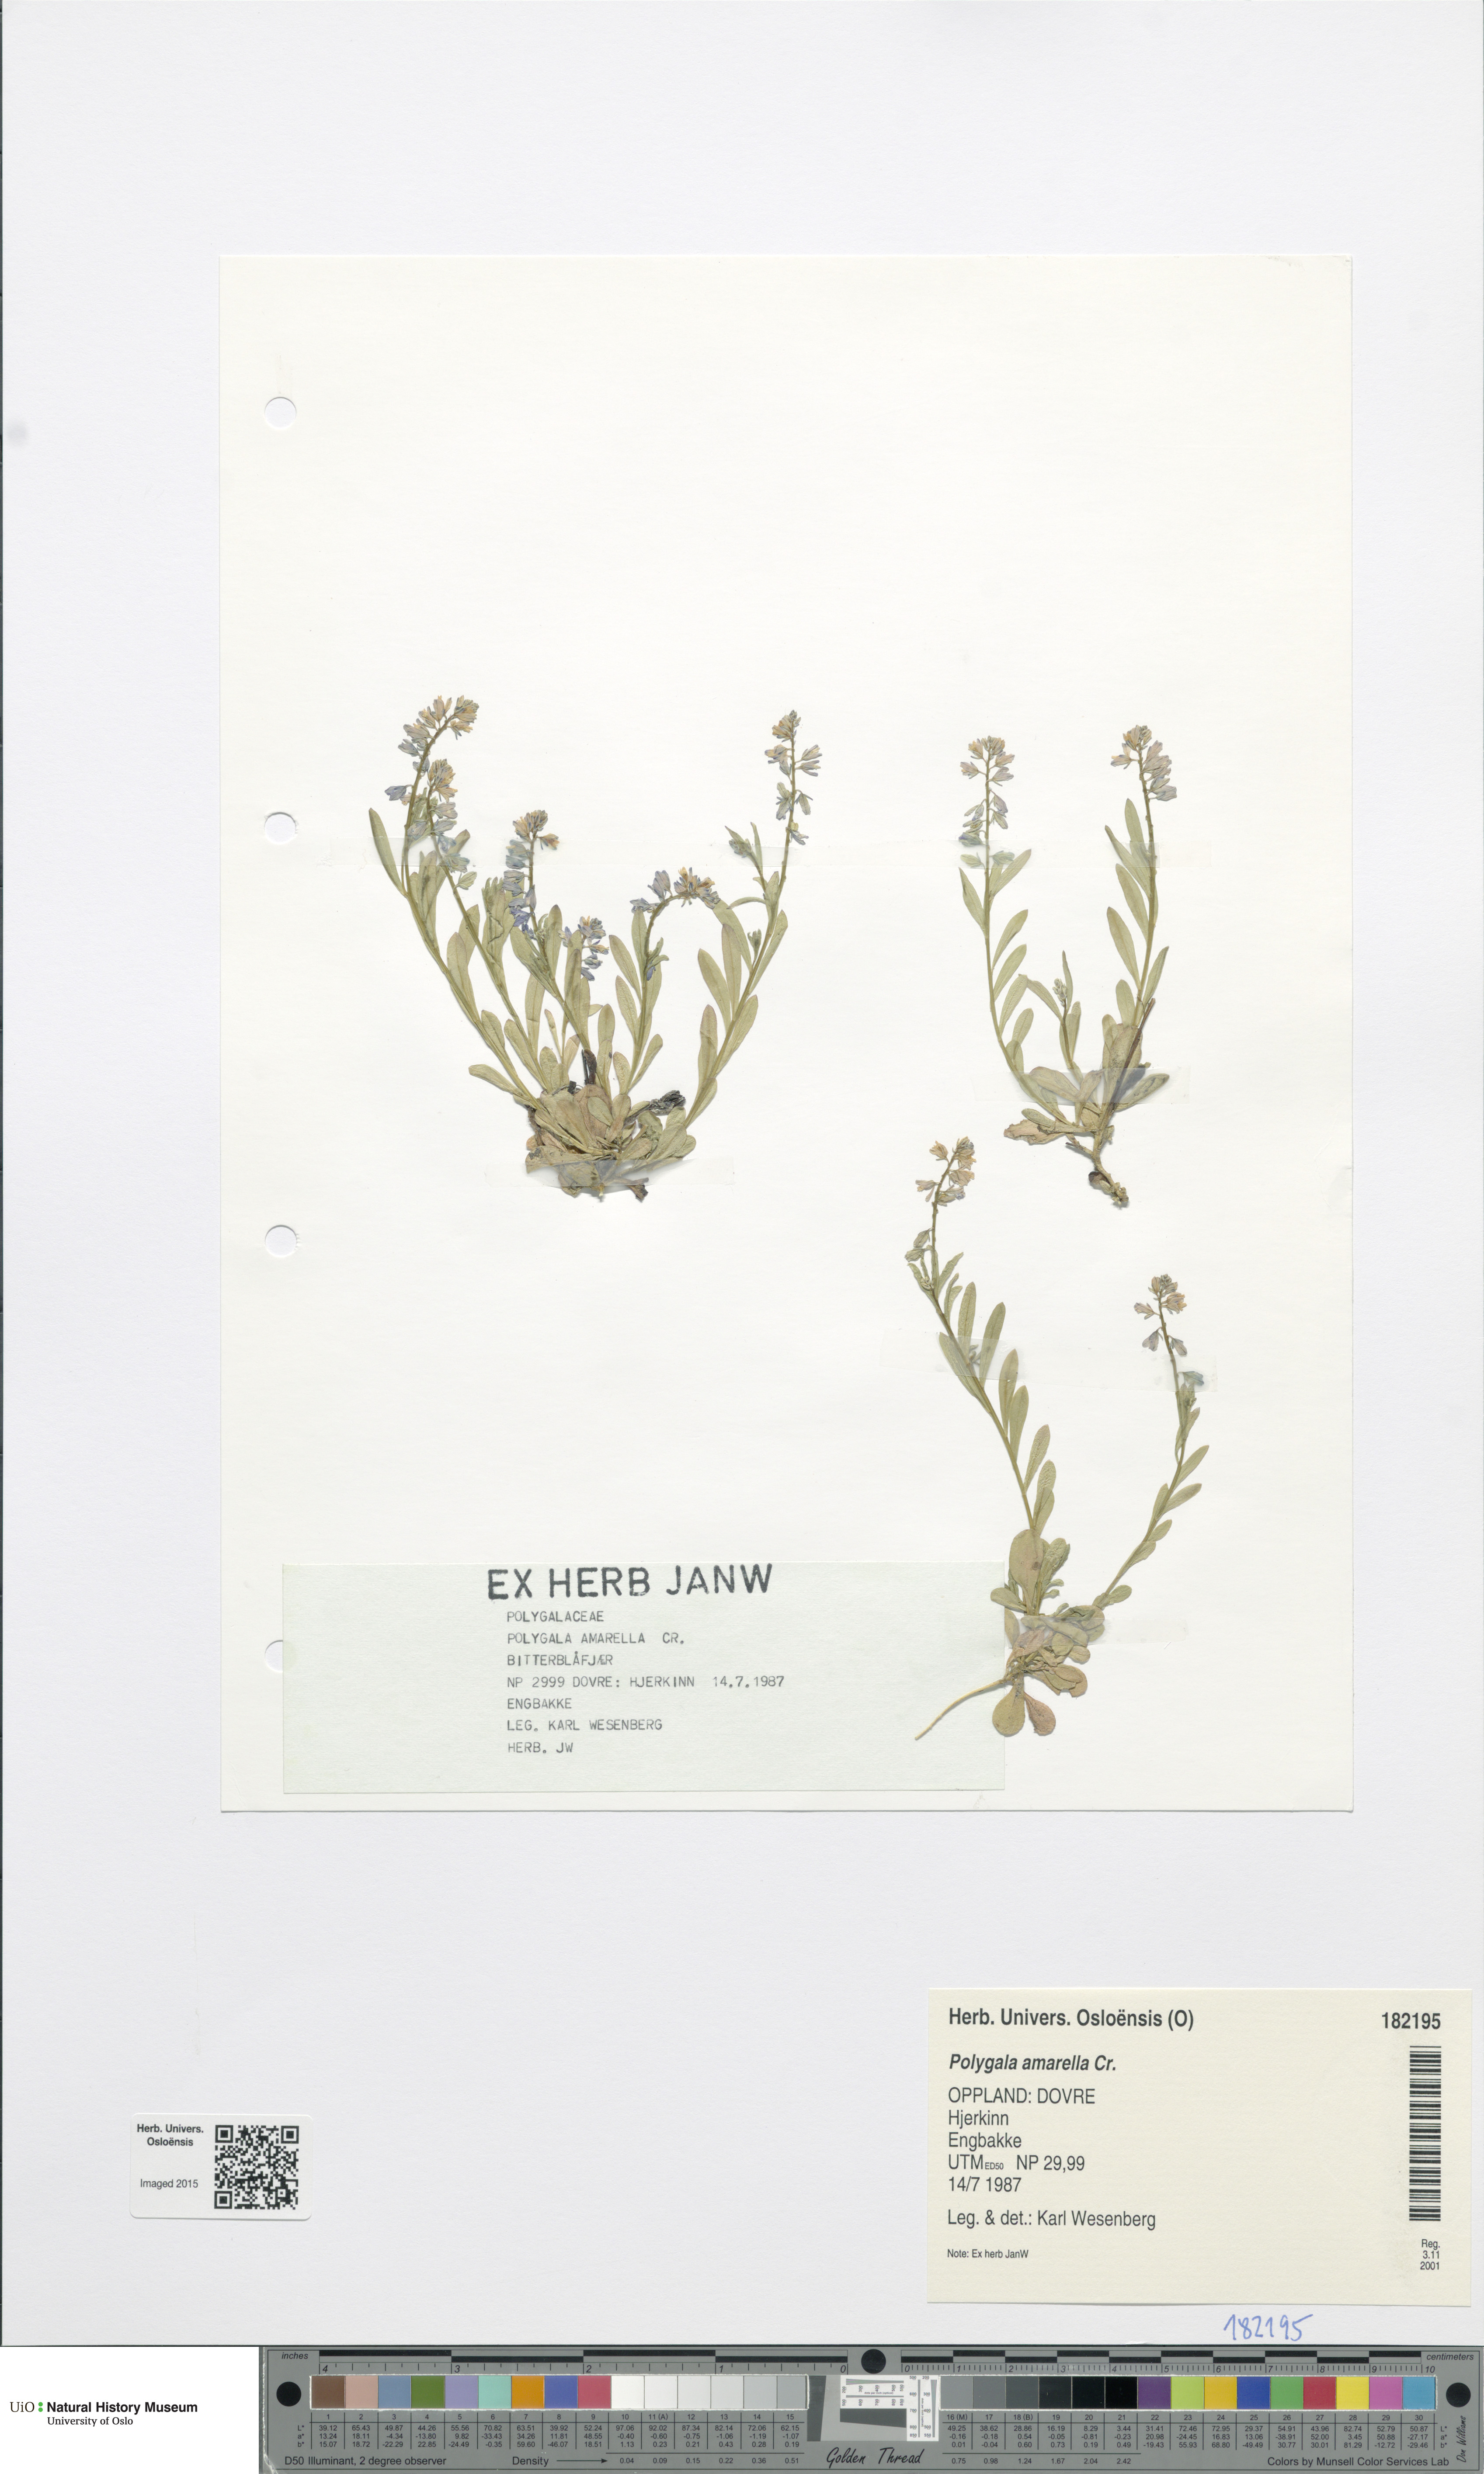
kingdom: Plantae
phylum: Tracheophyta
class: Magnoliopsida
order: Fabales
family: Polygalaceae
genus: Polygala
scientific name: Polygala amarella
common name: Dwarf milkwort
